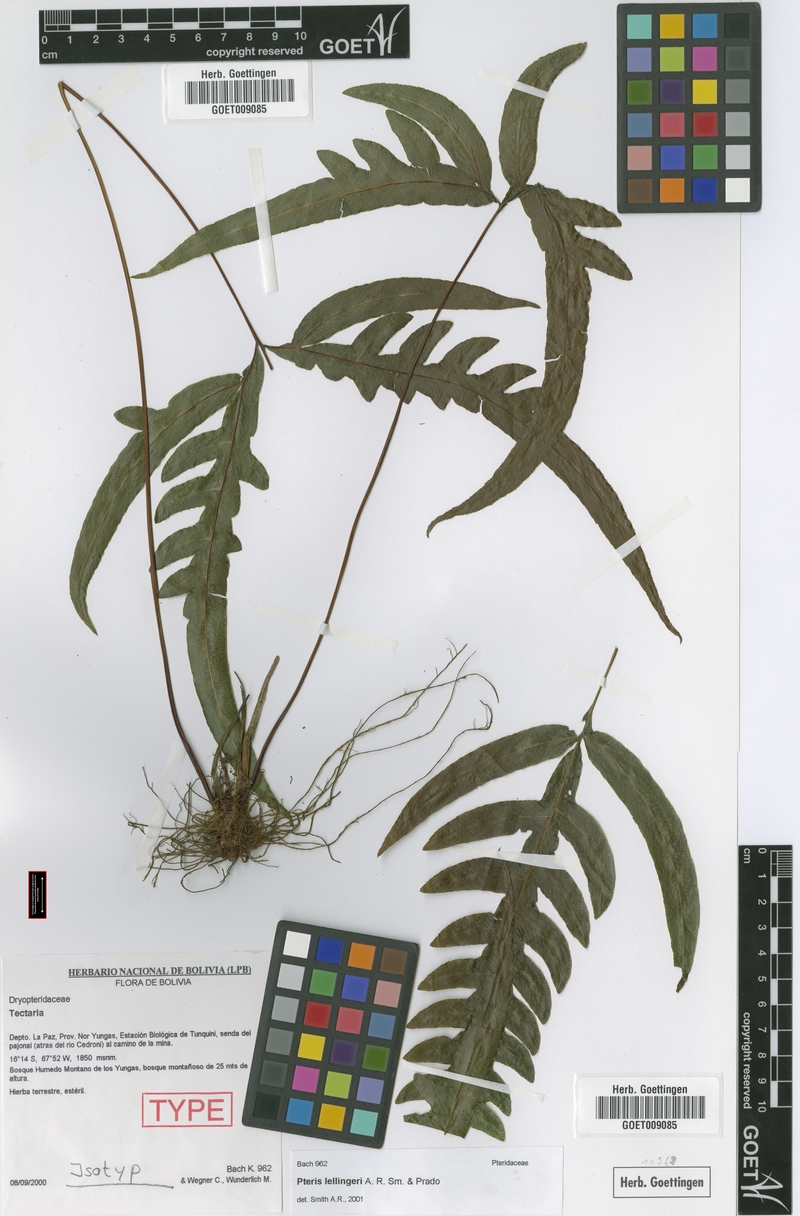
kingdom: Plantae
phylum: Tracheophyta
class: Polypodiopsida
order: Polypodiales
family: Pteridaceae
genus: Pteris
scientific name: Pteris lellingeri
